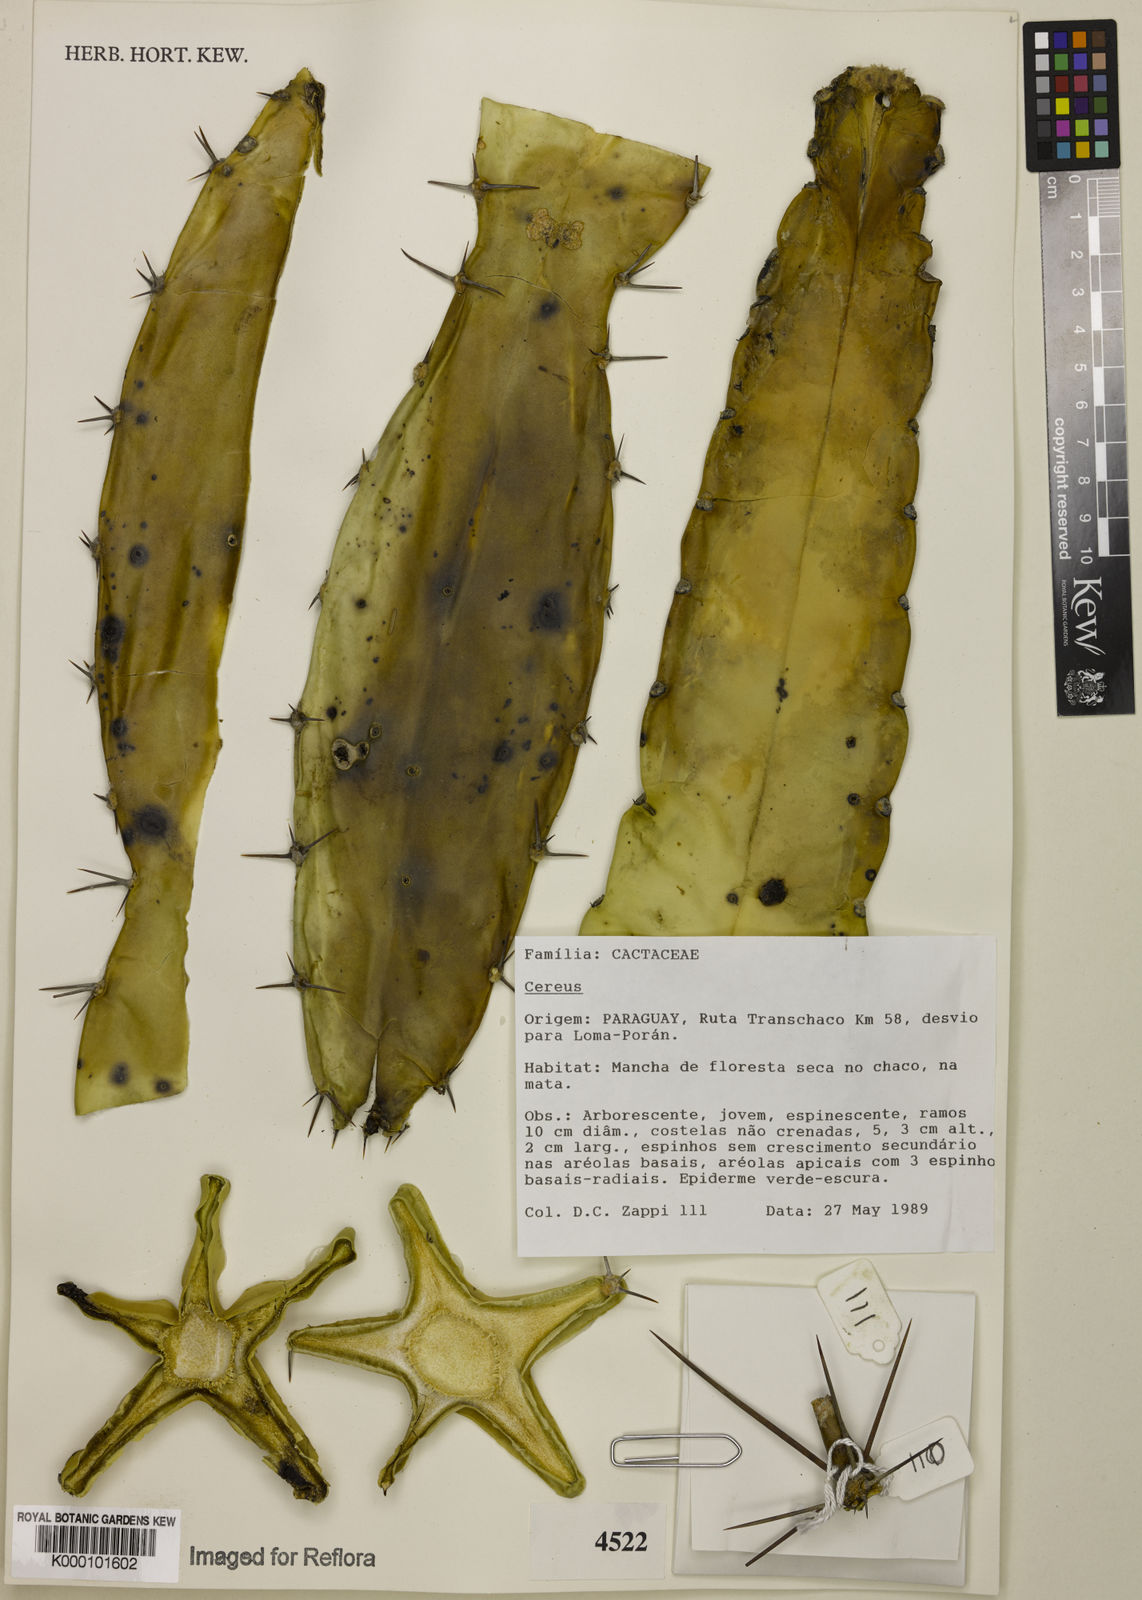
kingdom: Plantae
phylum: Tracheophyta
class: Magnoliopsida
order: Caryophyllales
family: Cactaceae
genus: Cereus
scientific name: Cereus
